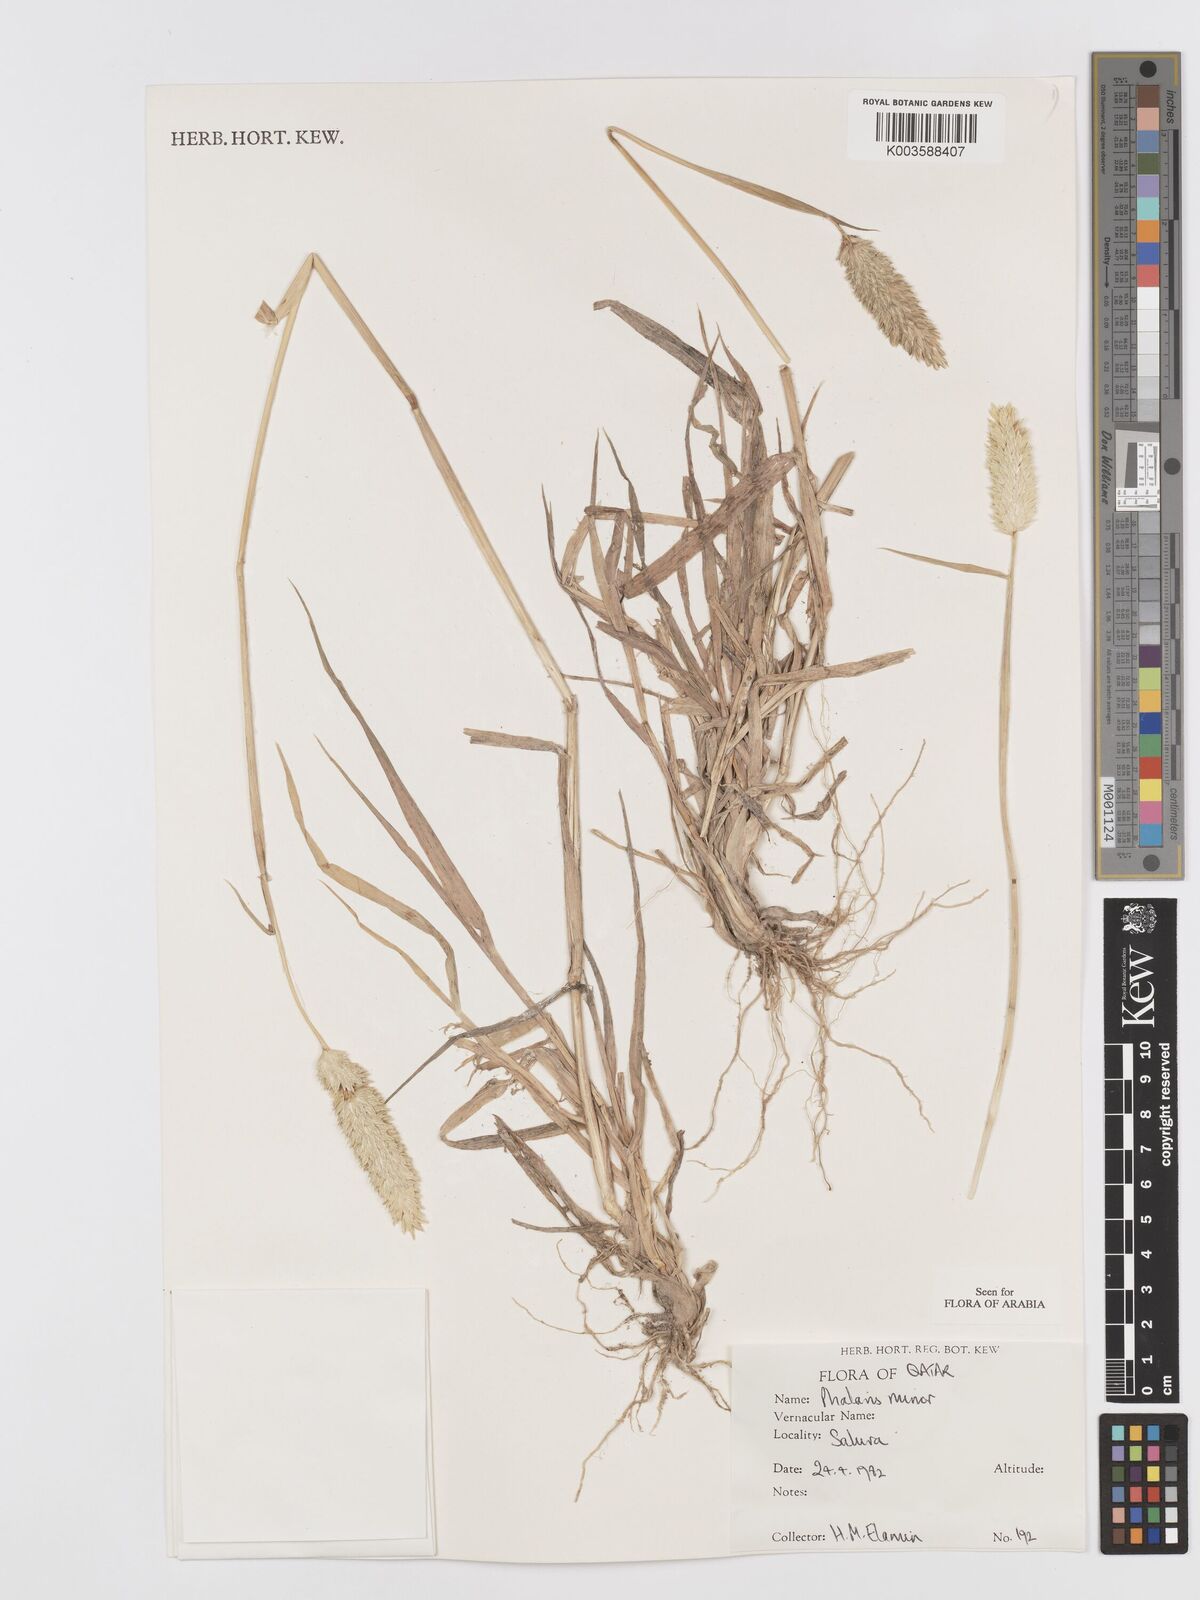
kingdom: Plantae
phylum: Tracheophyta
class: Liliopsida
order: Poales
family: Poaceae
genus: Phalaris
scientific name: Phalaris minor
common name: Littleseed canarygrass
